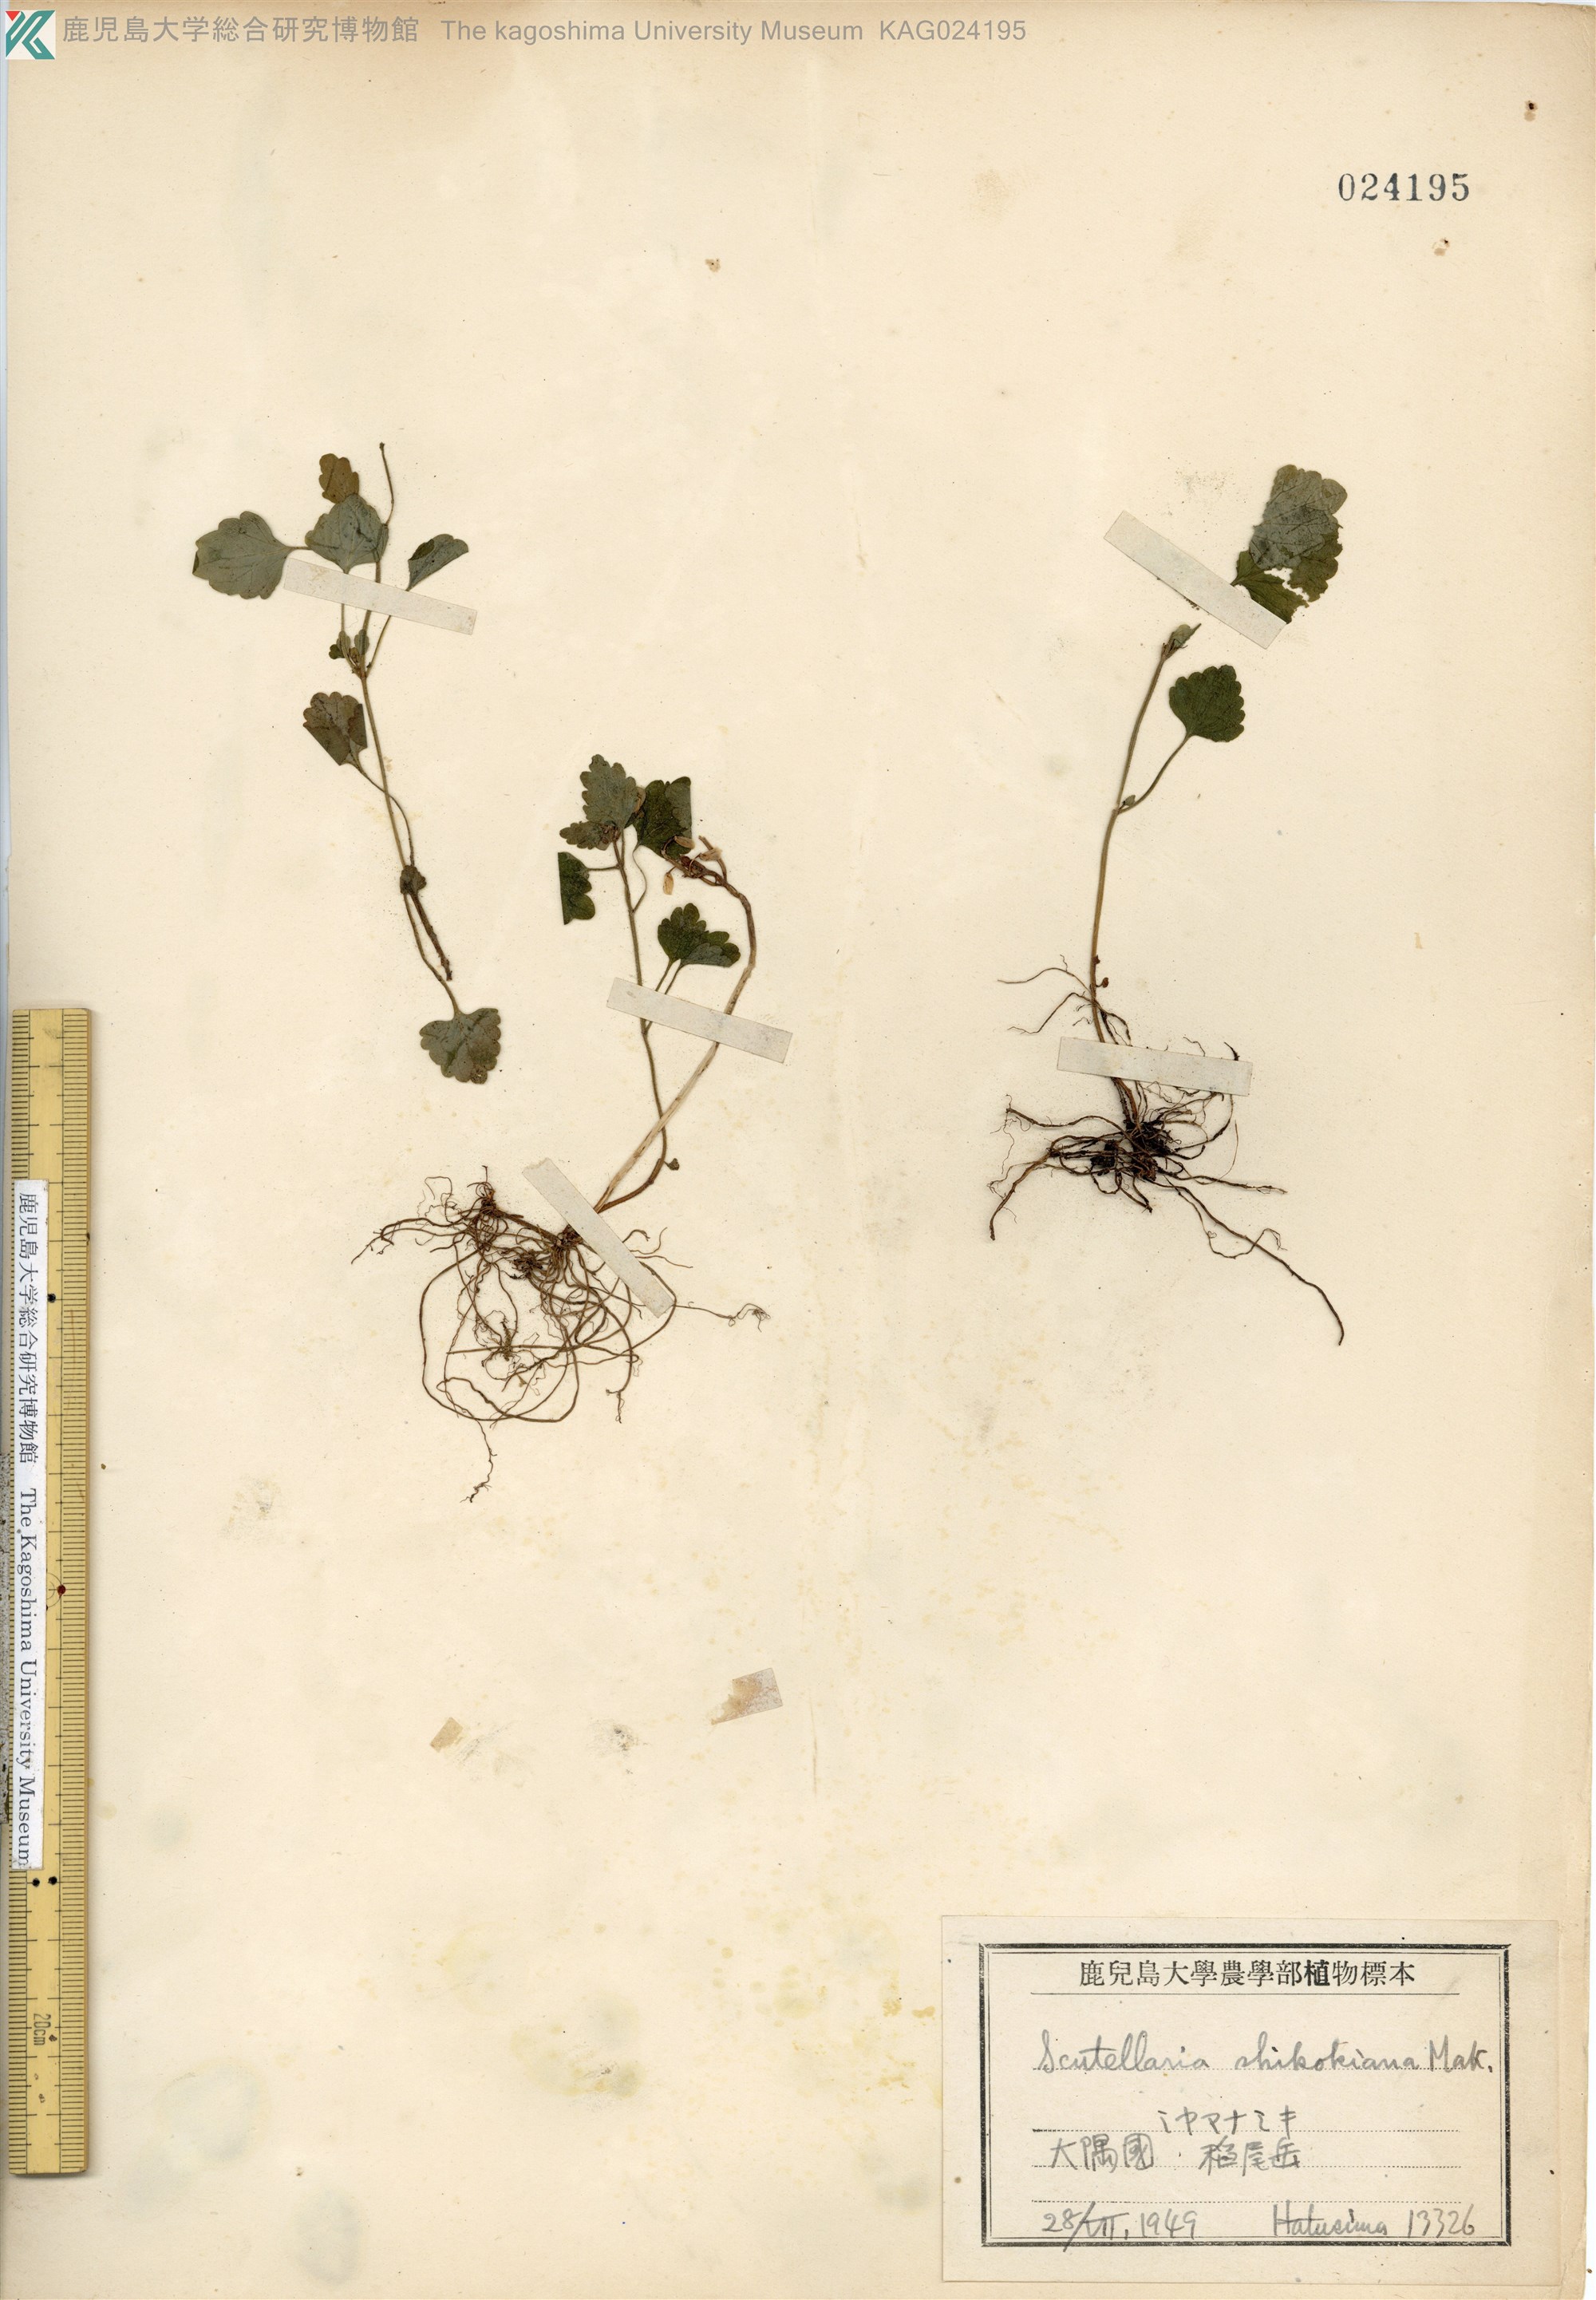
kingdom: Plantae
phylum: Tracheophyta
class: Magnoliopsida
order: Lamiales
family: Lamiaceae
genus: Scutellaria
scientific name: Scutellaria laeteviolacea
